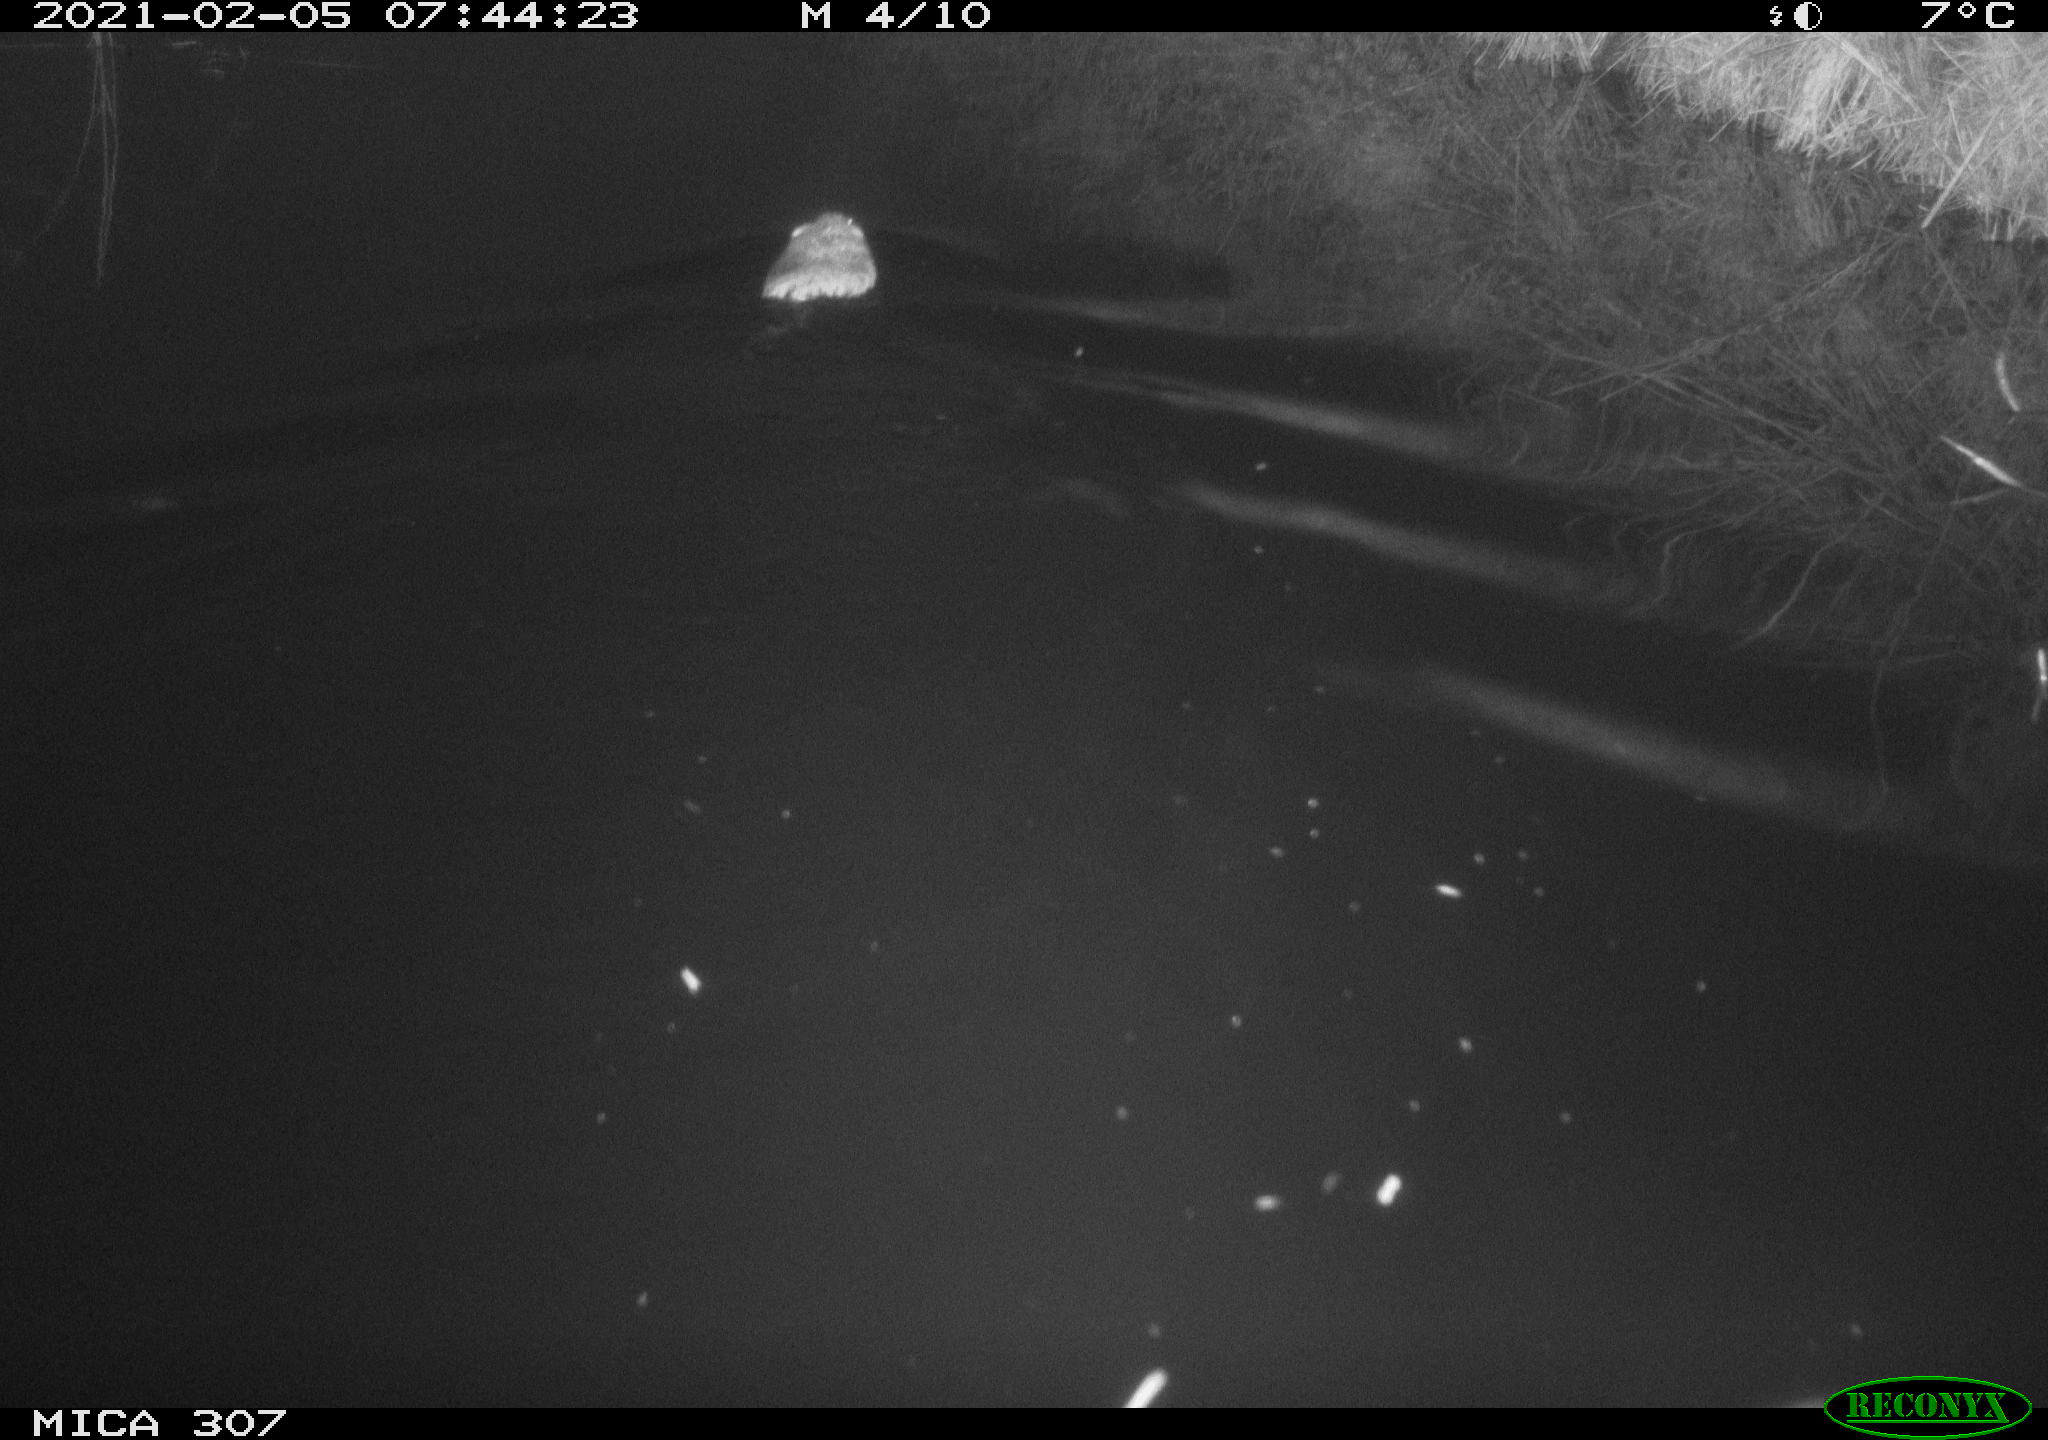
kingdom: Animalia
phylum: Chordata
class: Mammalia
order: Rodentia
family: Cricetidae
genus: Ondatra
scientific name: Ondatra zibethicus
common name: Muskrat
